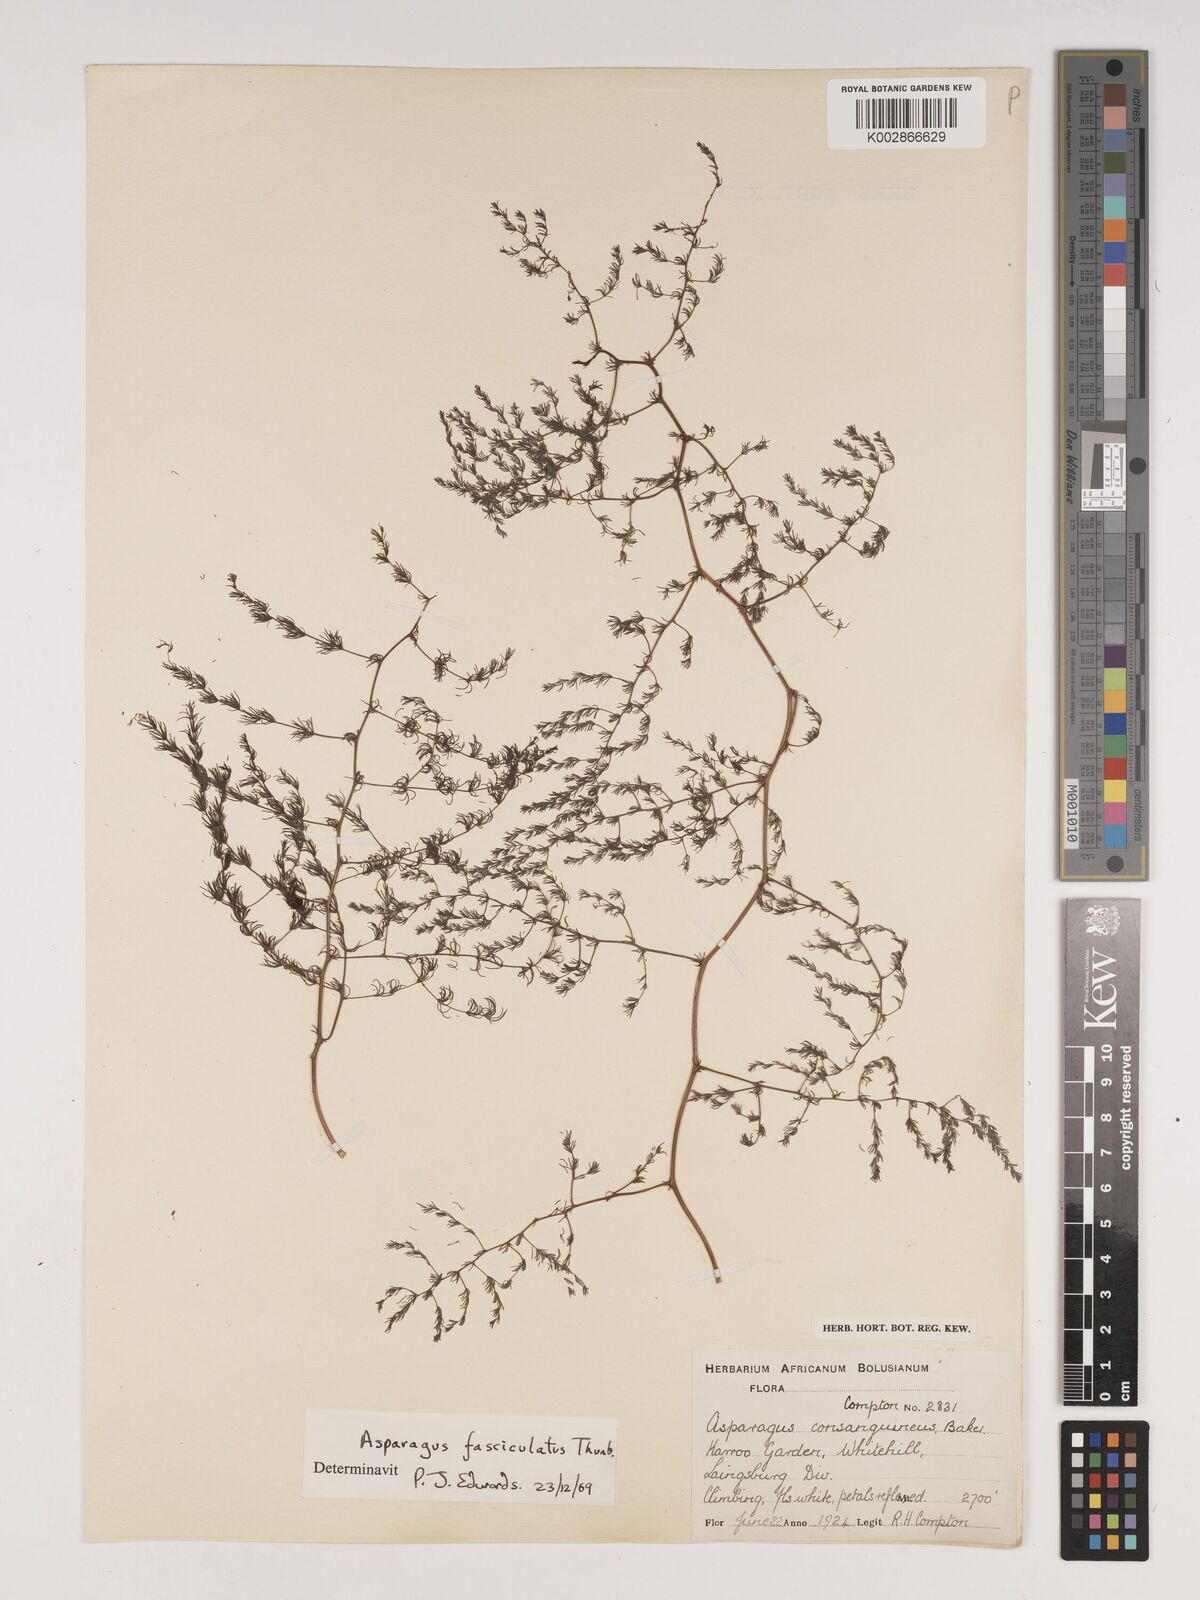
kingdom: Plantae
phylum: Tracheophyta
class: Liliopsida
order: Asparagales
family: Asparagaceae
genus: Asparagus
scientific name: Asparagus fasciculatus
